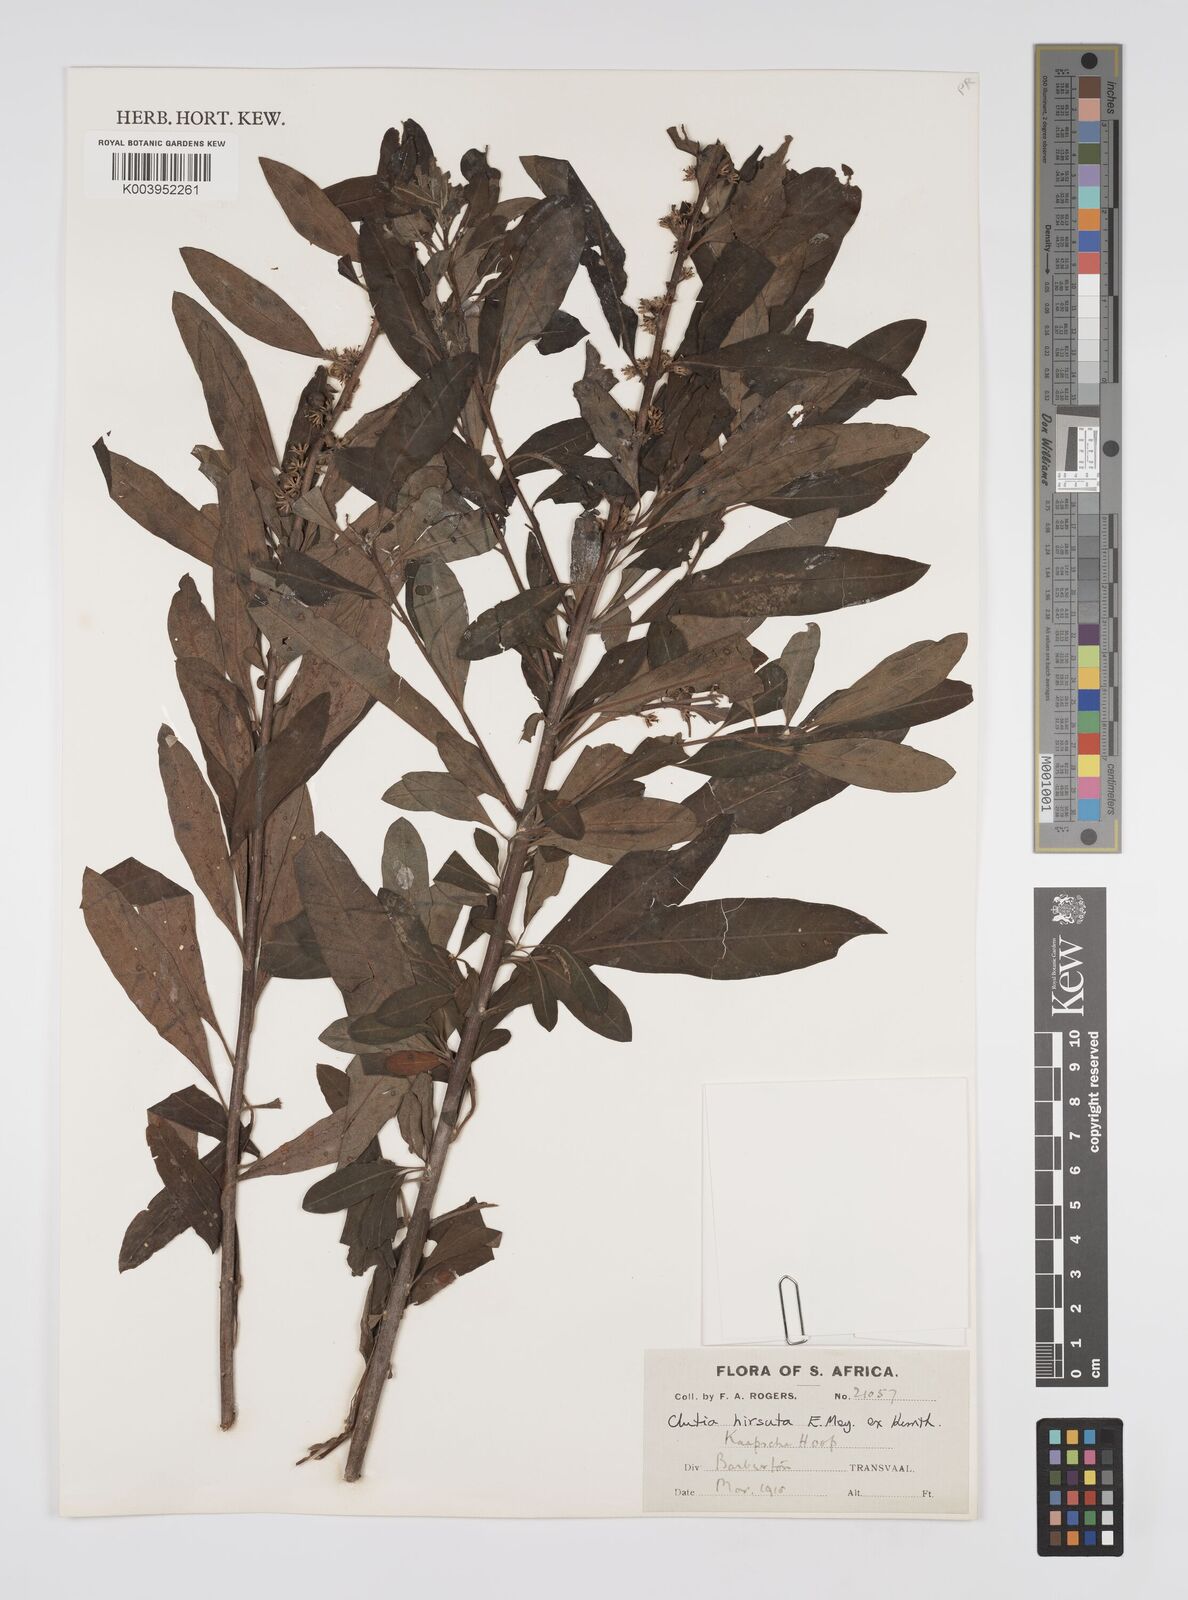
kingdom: Plantae
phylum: Tracheophyta
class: Magnoliopsida
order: Malpighiales
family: Peraceae
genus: Clutia
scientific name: Clutia affinis
